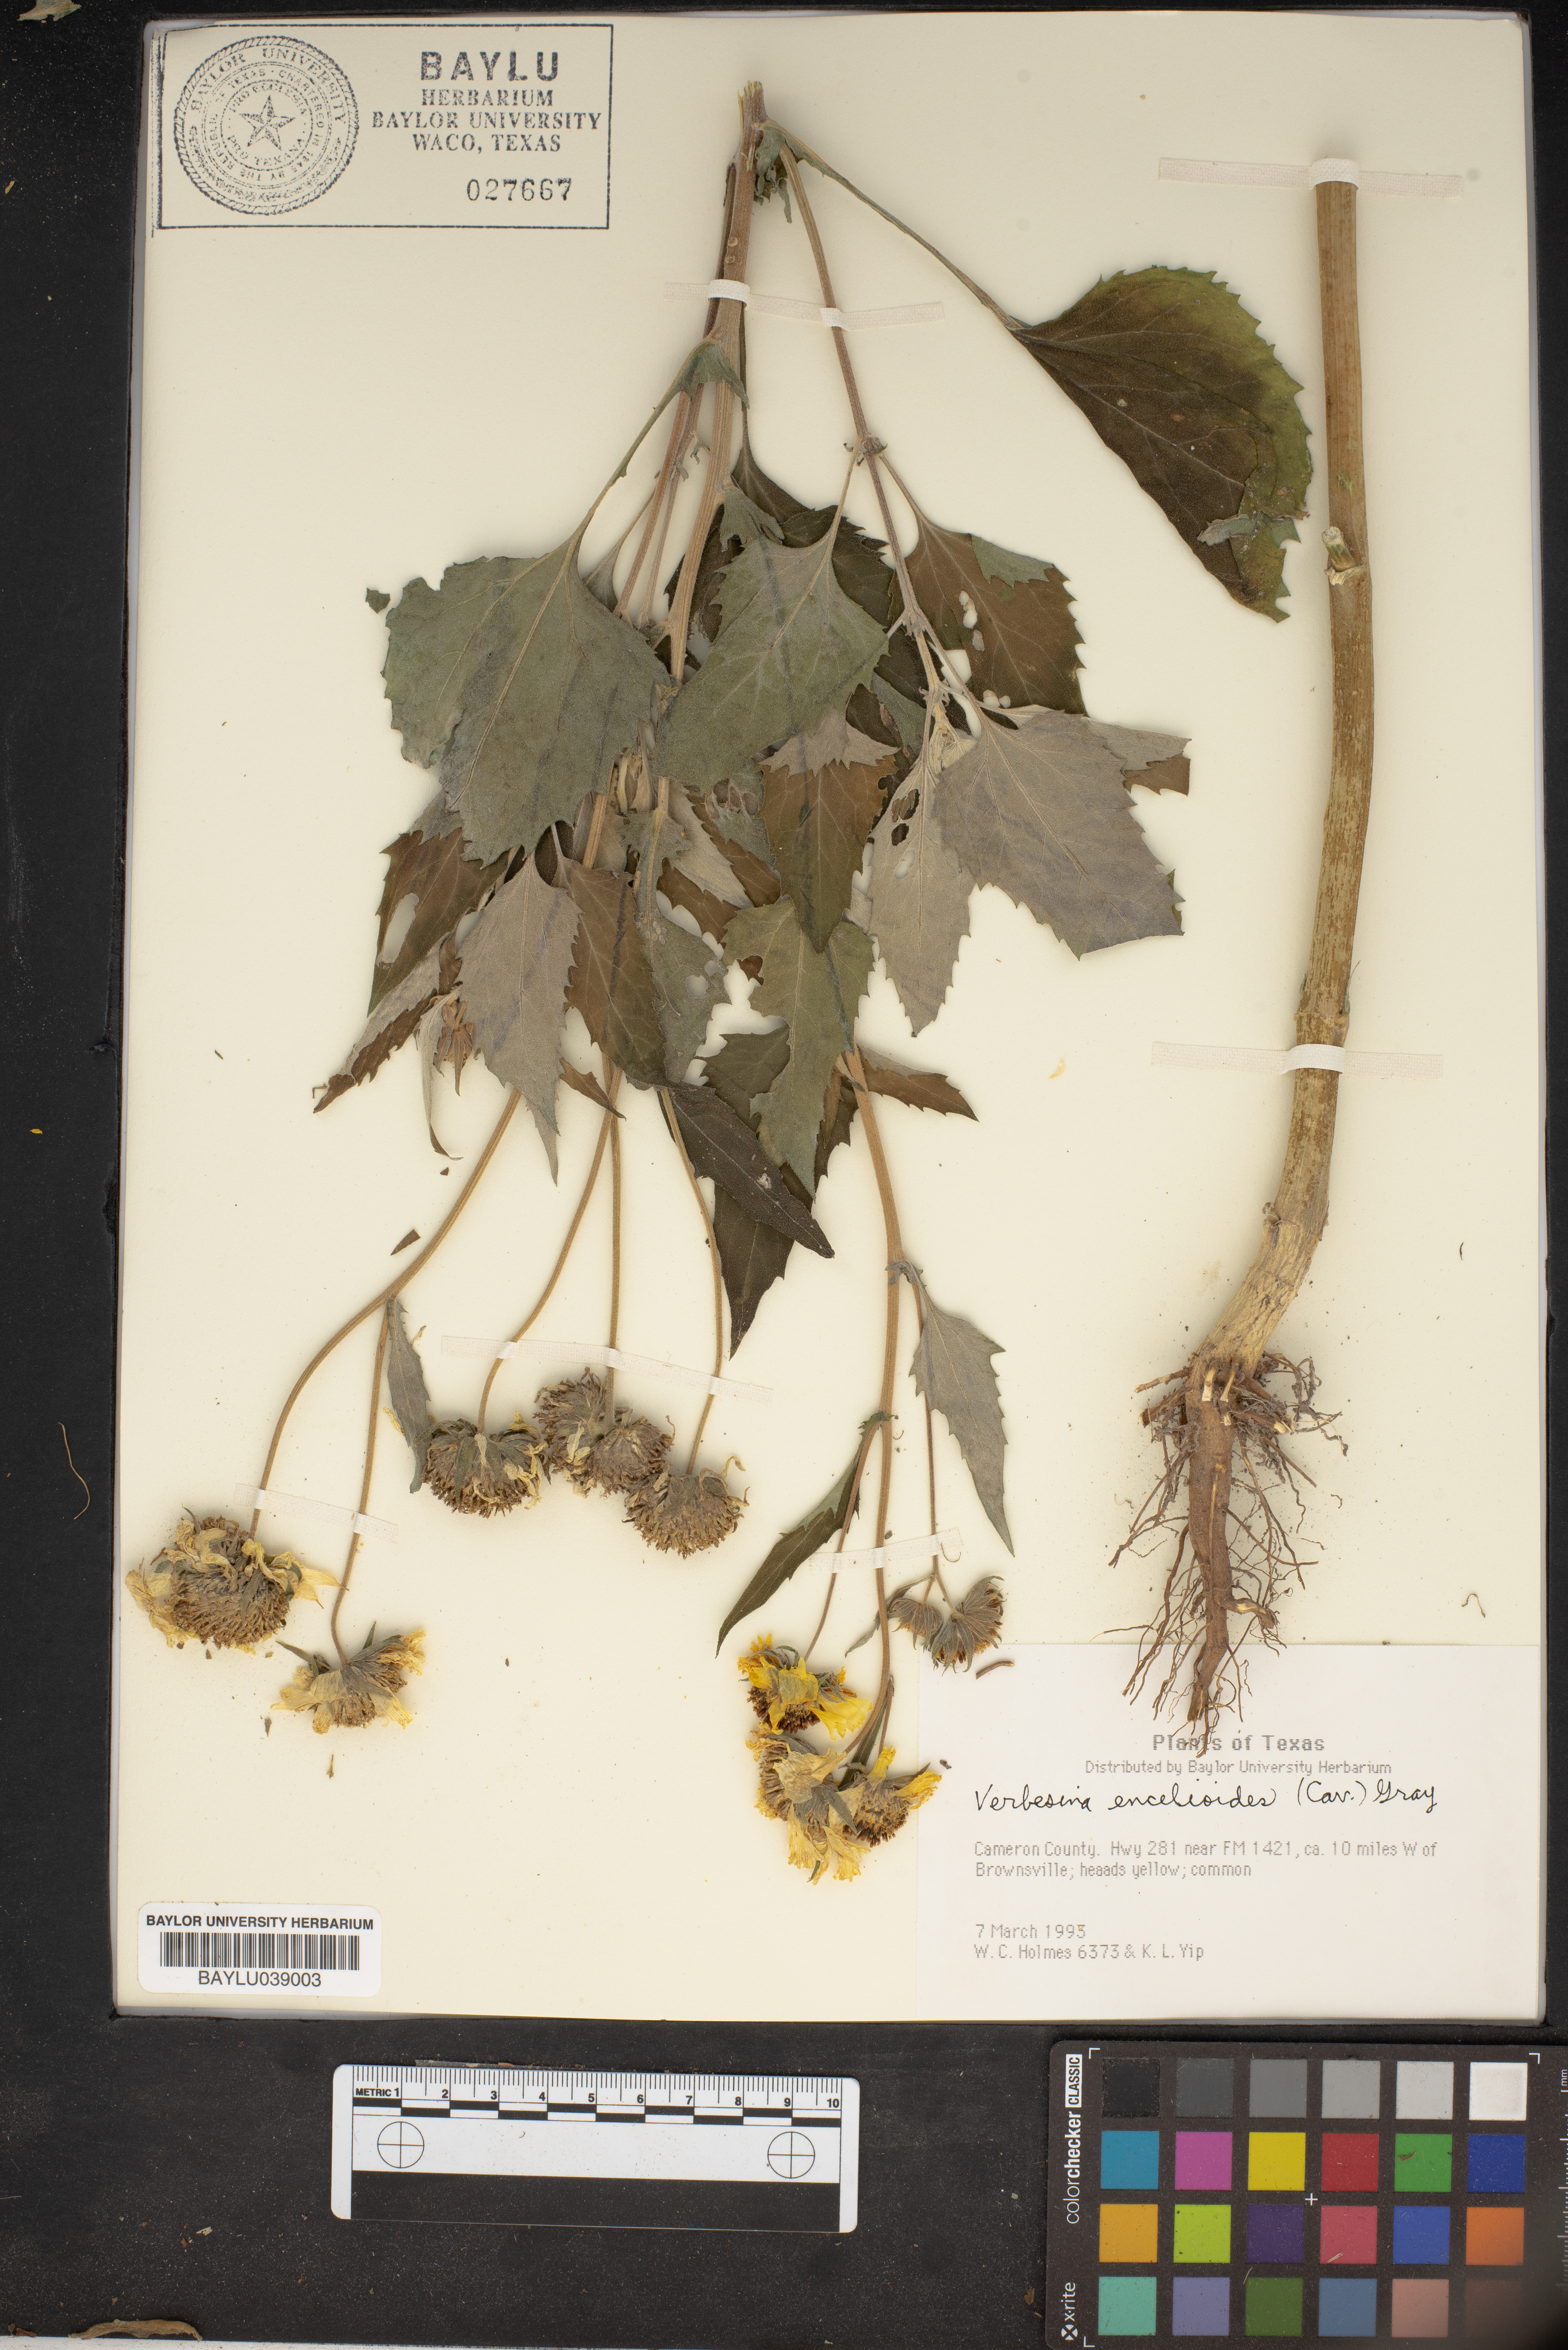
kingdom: Plantae
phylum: Tracheophyta
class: Magnoliopsida
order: Asterales
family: Asteraceae
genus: Verbesina
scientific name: Verbesina encelioides
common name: Golden crownbeard
